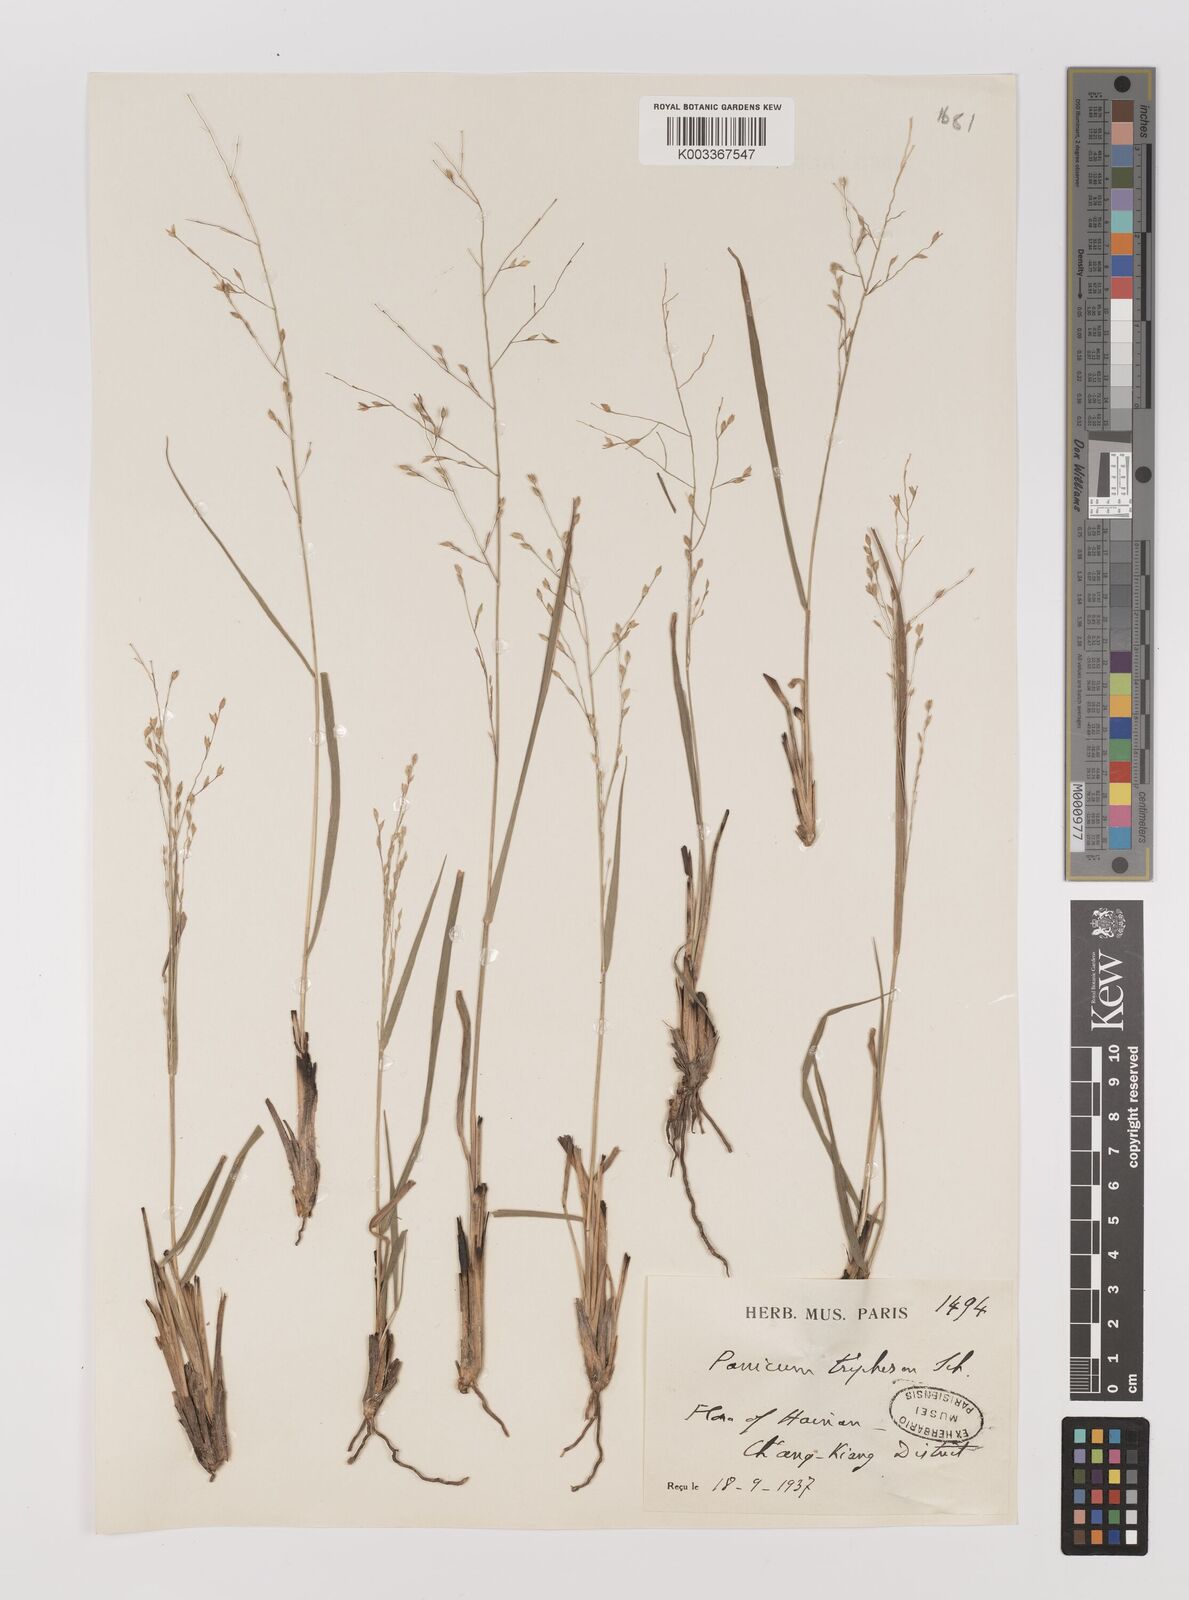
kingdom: Plantae
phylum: Tracheophyta
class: Liliopsida
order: Poales
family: Poaceae
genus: Panicum
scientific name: Panicum elegantissimum
